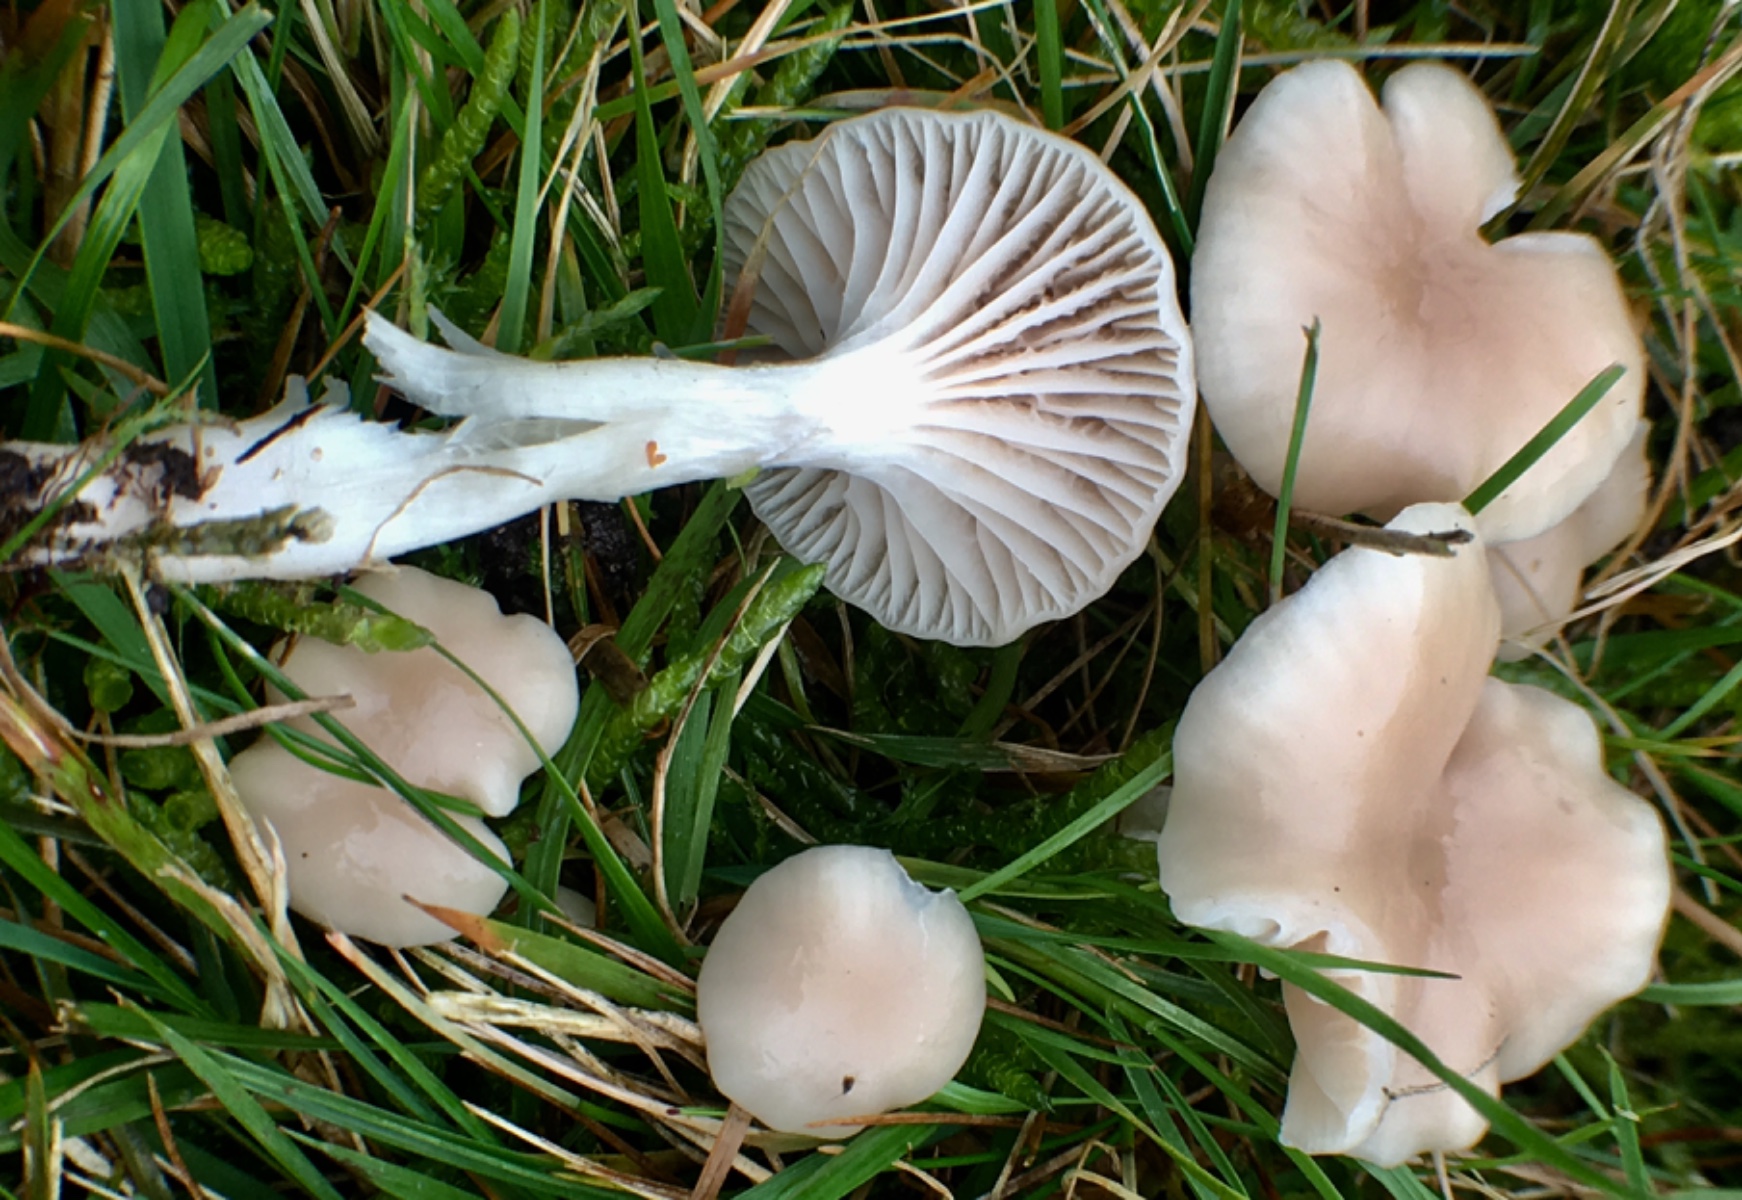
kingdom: Fungi
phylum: Basidiomycota
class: Agaricomycetes
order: Agaricales
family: Hygrophoraceae
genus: Cuphophyllus
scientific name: Cuphophyllus virgineus
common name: isabella-vokshat
